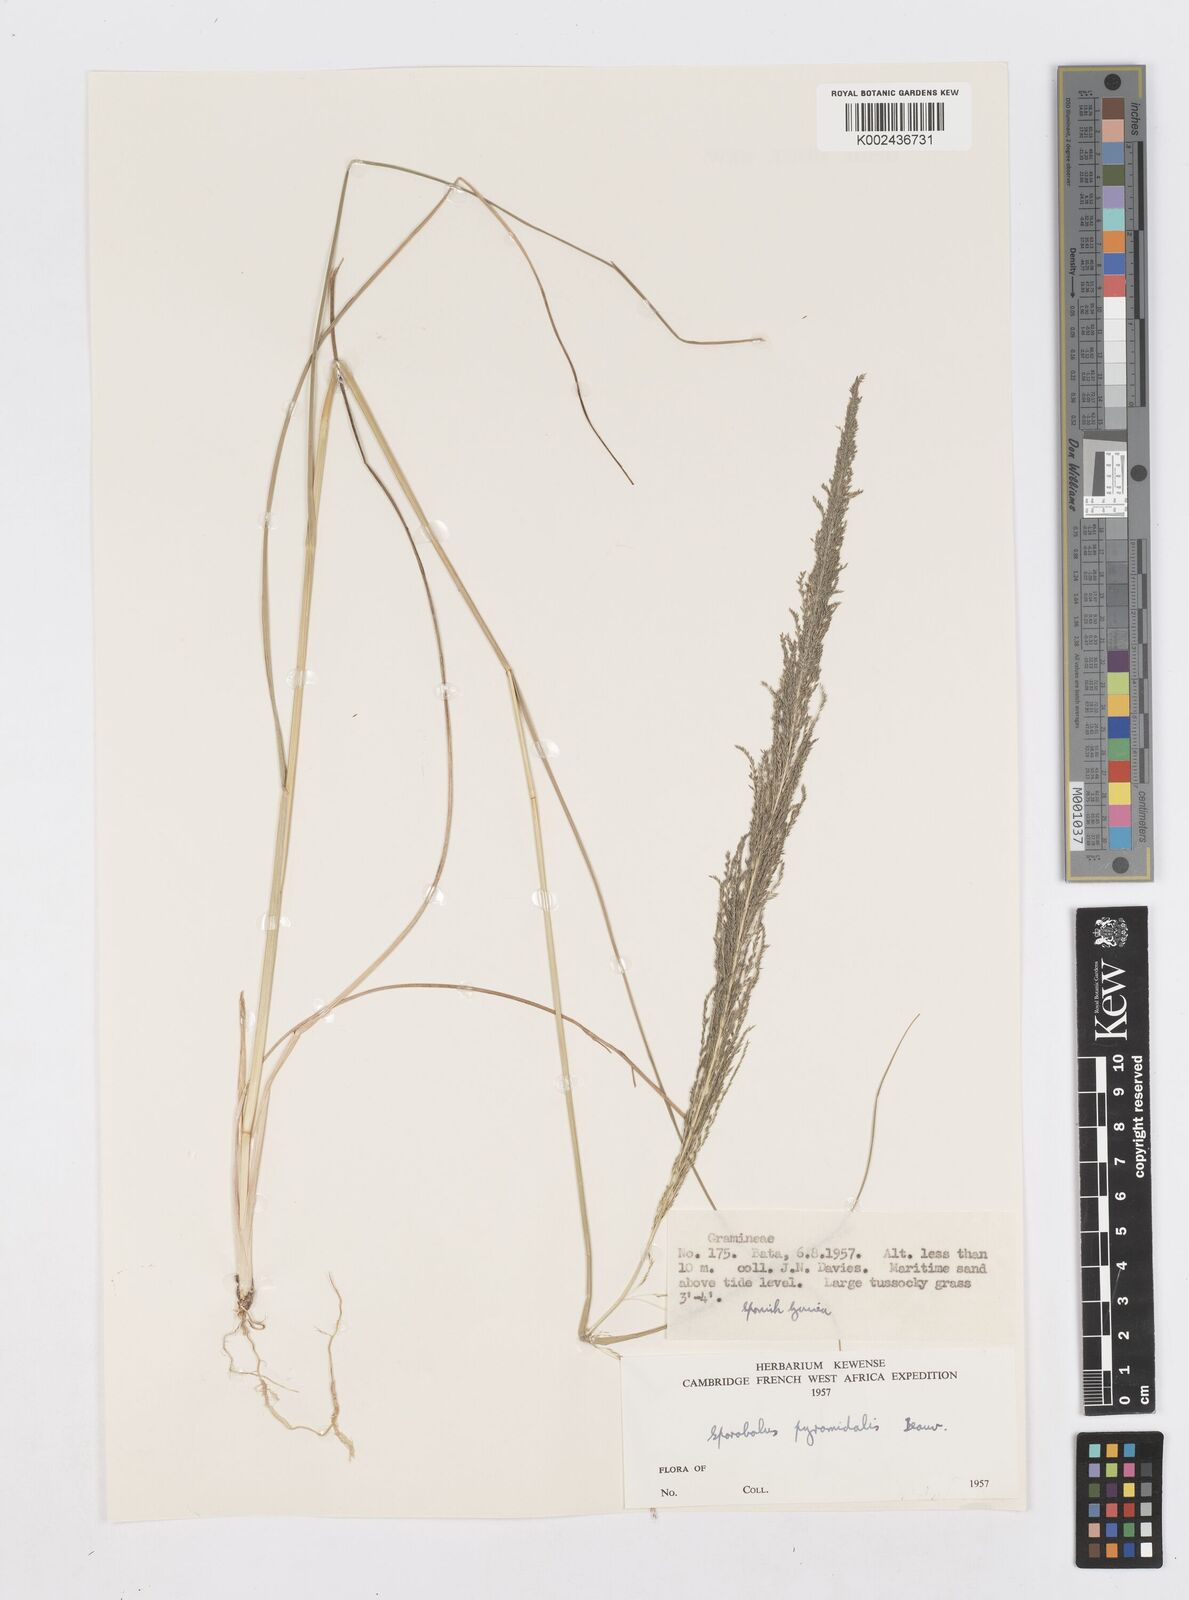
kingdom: Plantae
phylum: Tracheophyta
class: Liliopsida
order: Poales
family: Poaceae
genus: Sporobolus
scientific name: Sporobolus pyramidalis
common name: West indian dropseed
